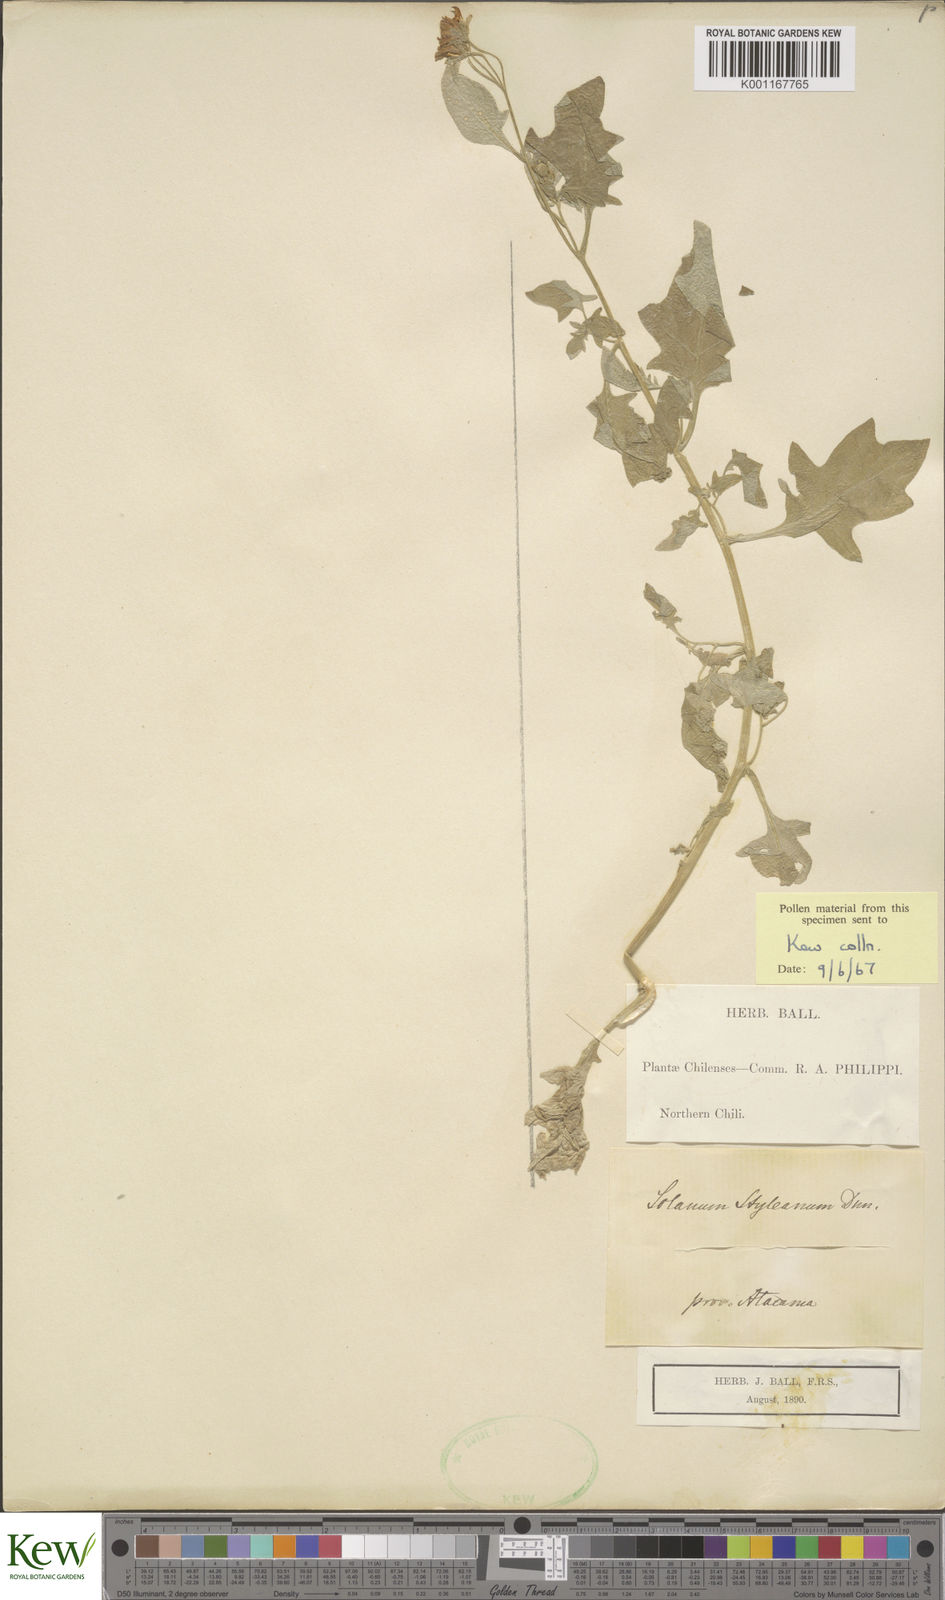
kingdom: Plantae
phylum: Tracheophyta
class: Magnoliopsida
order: Solanales
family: Solanaceae
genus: Solanum
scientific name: Solanum trinominum
